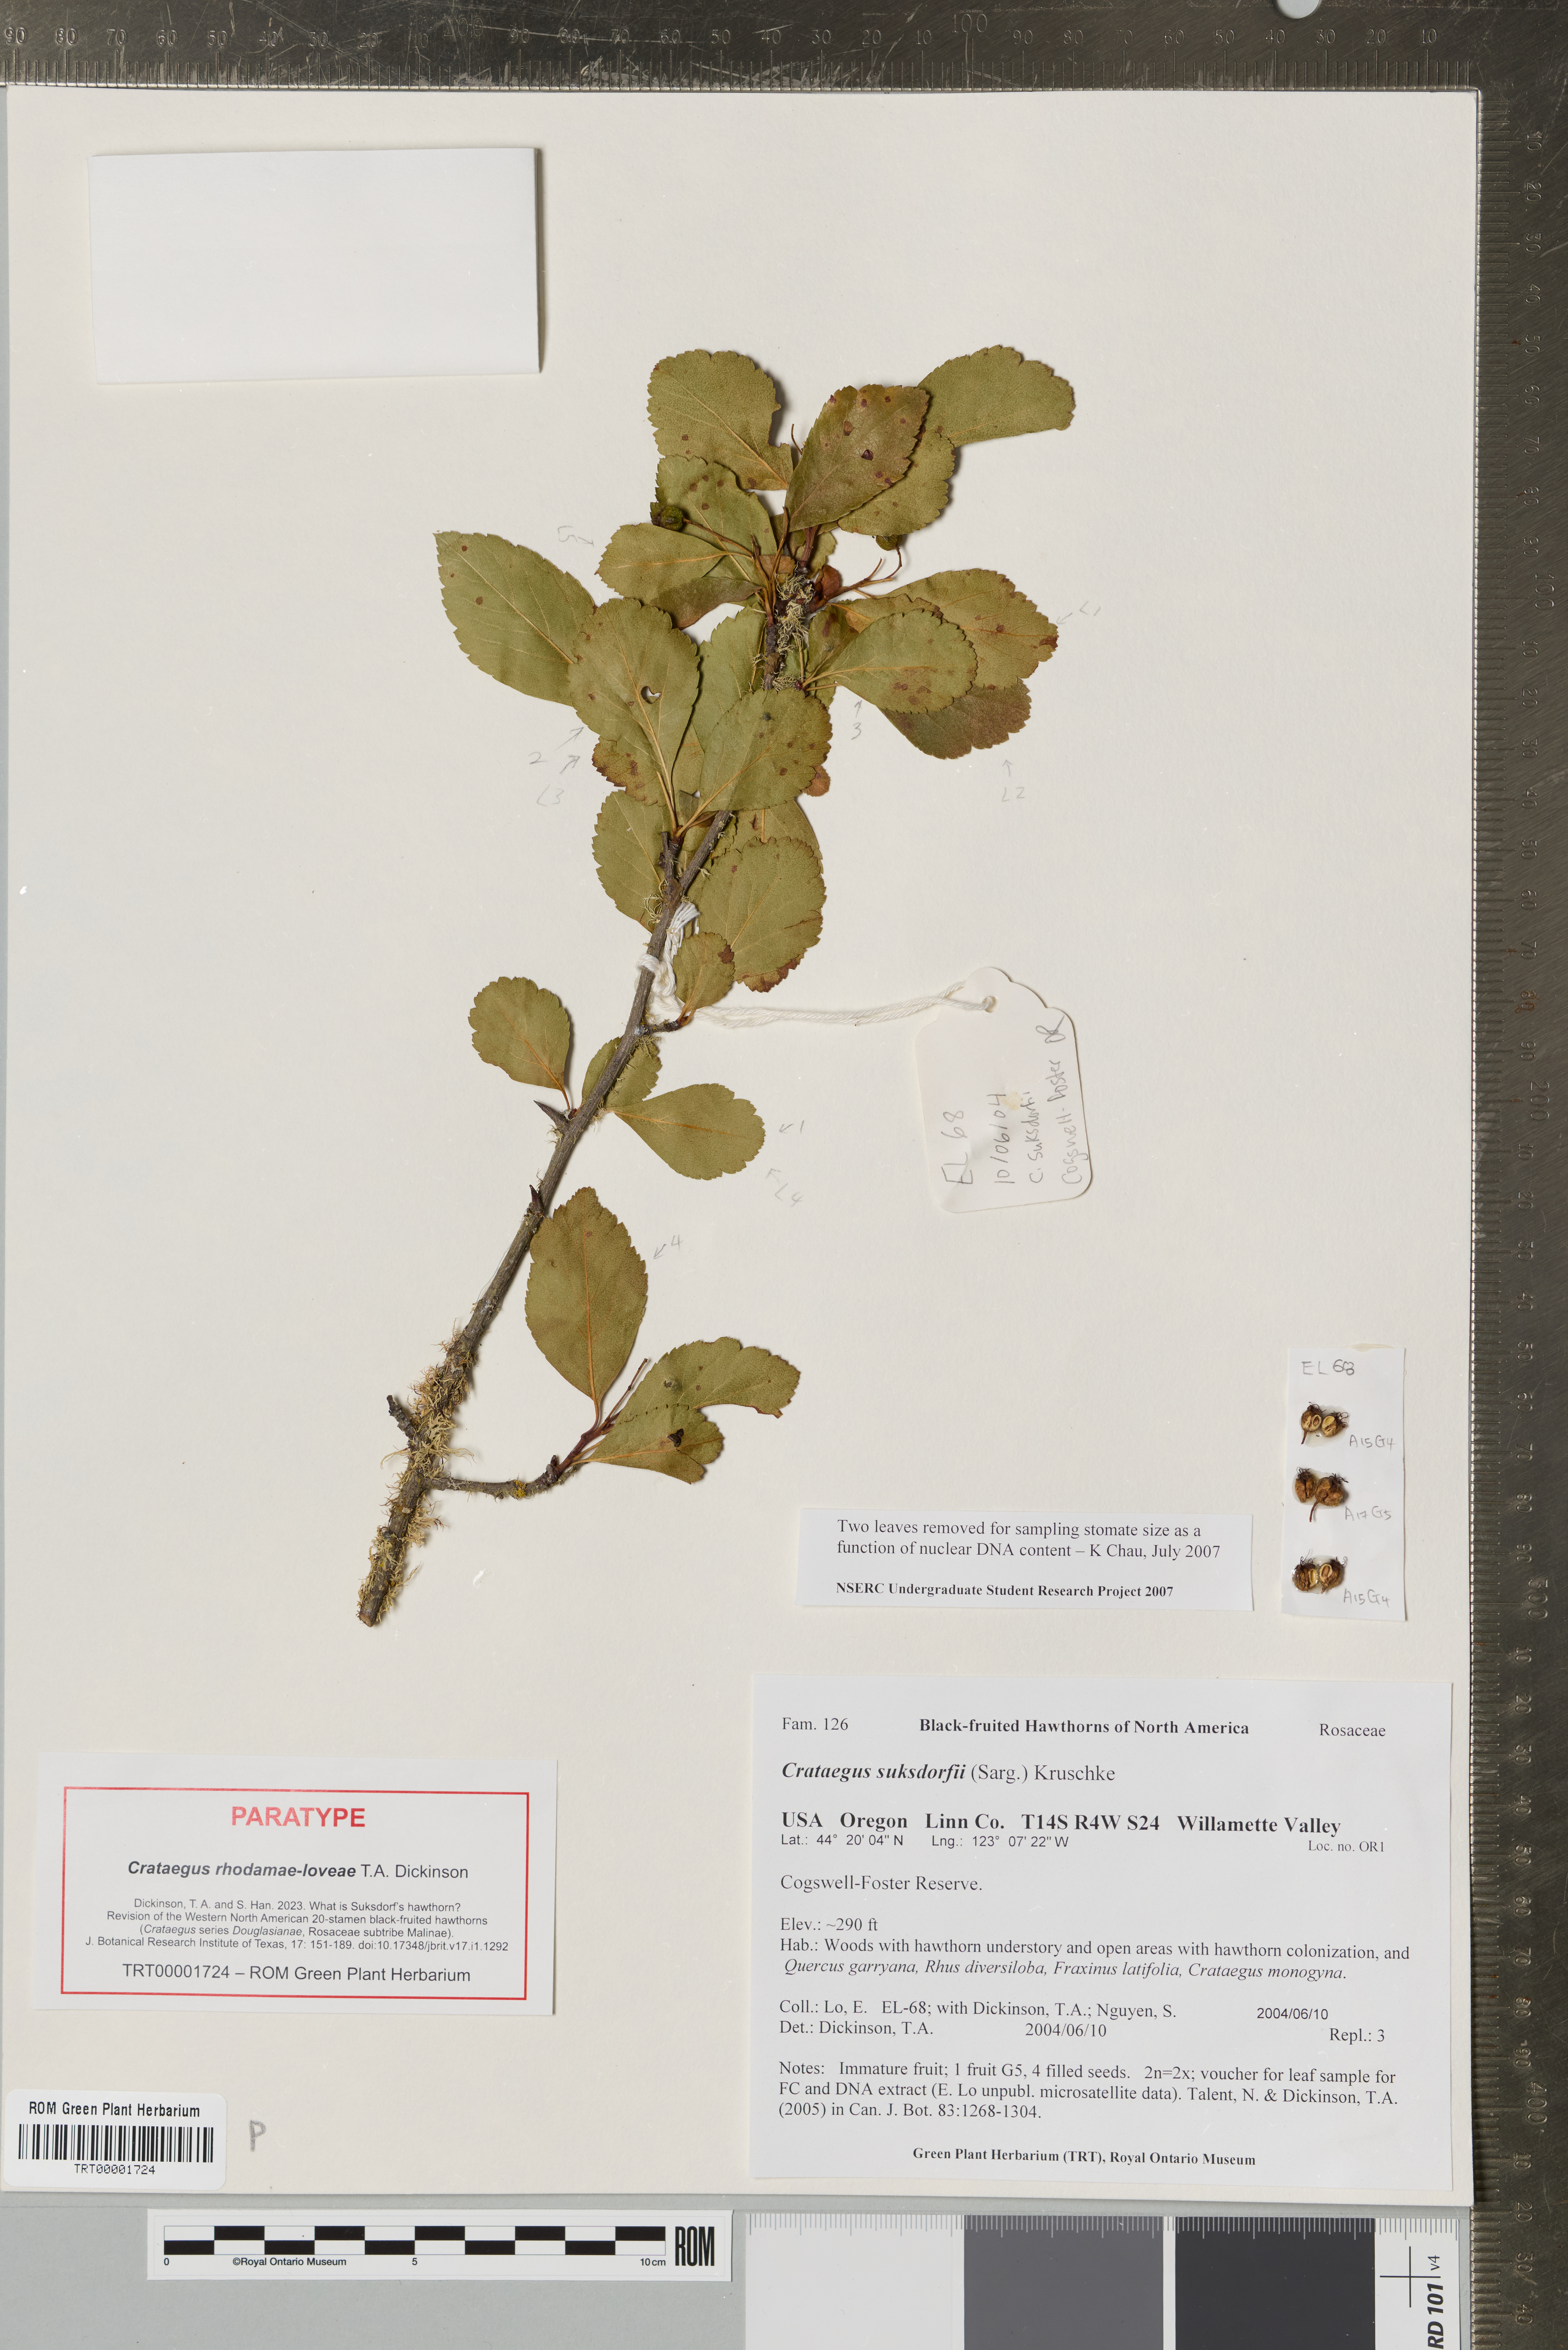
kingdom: Plantae
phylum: Tracheophyta
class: Magnoliopsida
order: Rosales
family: Rosaceae
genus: Crataegus
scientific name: Crataegus gaylussacia
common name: Huckleberry hawthorn
